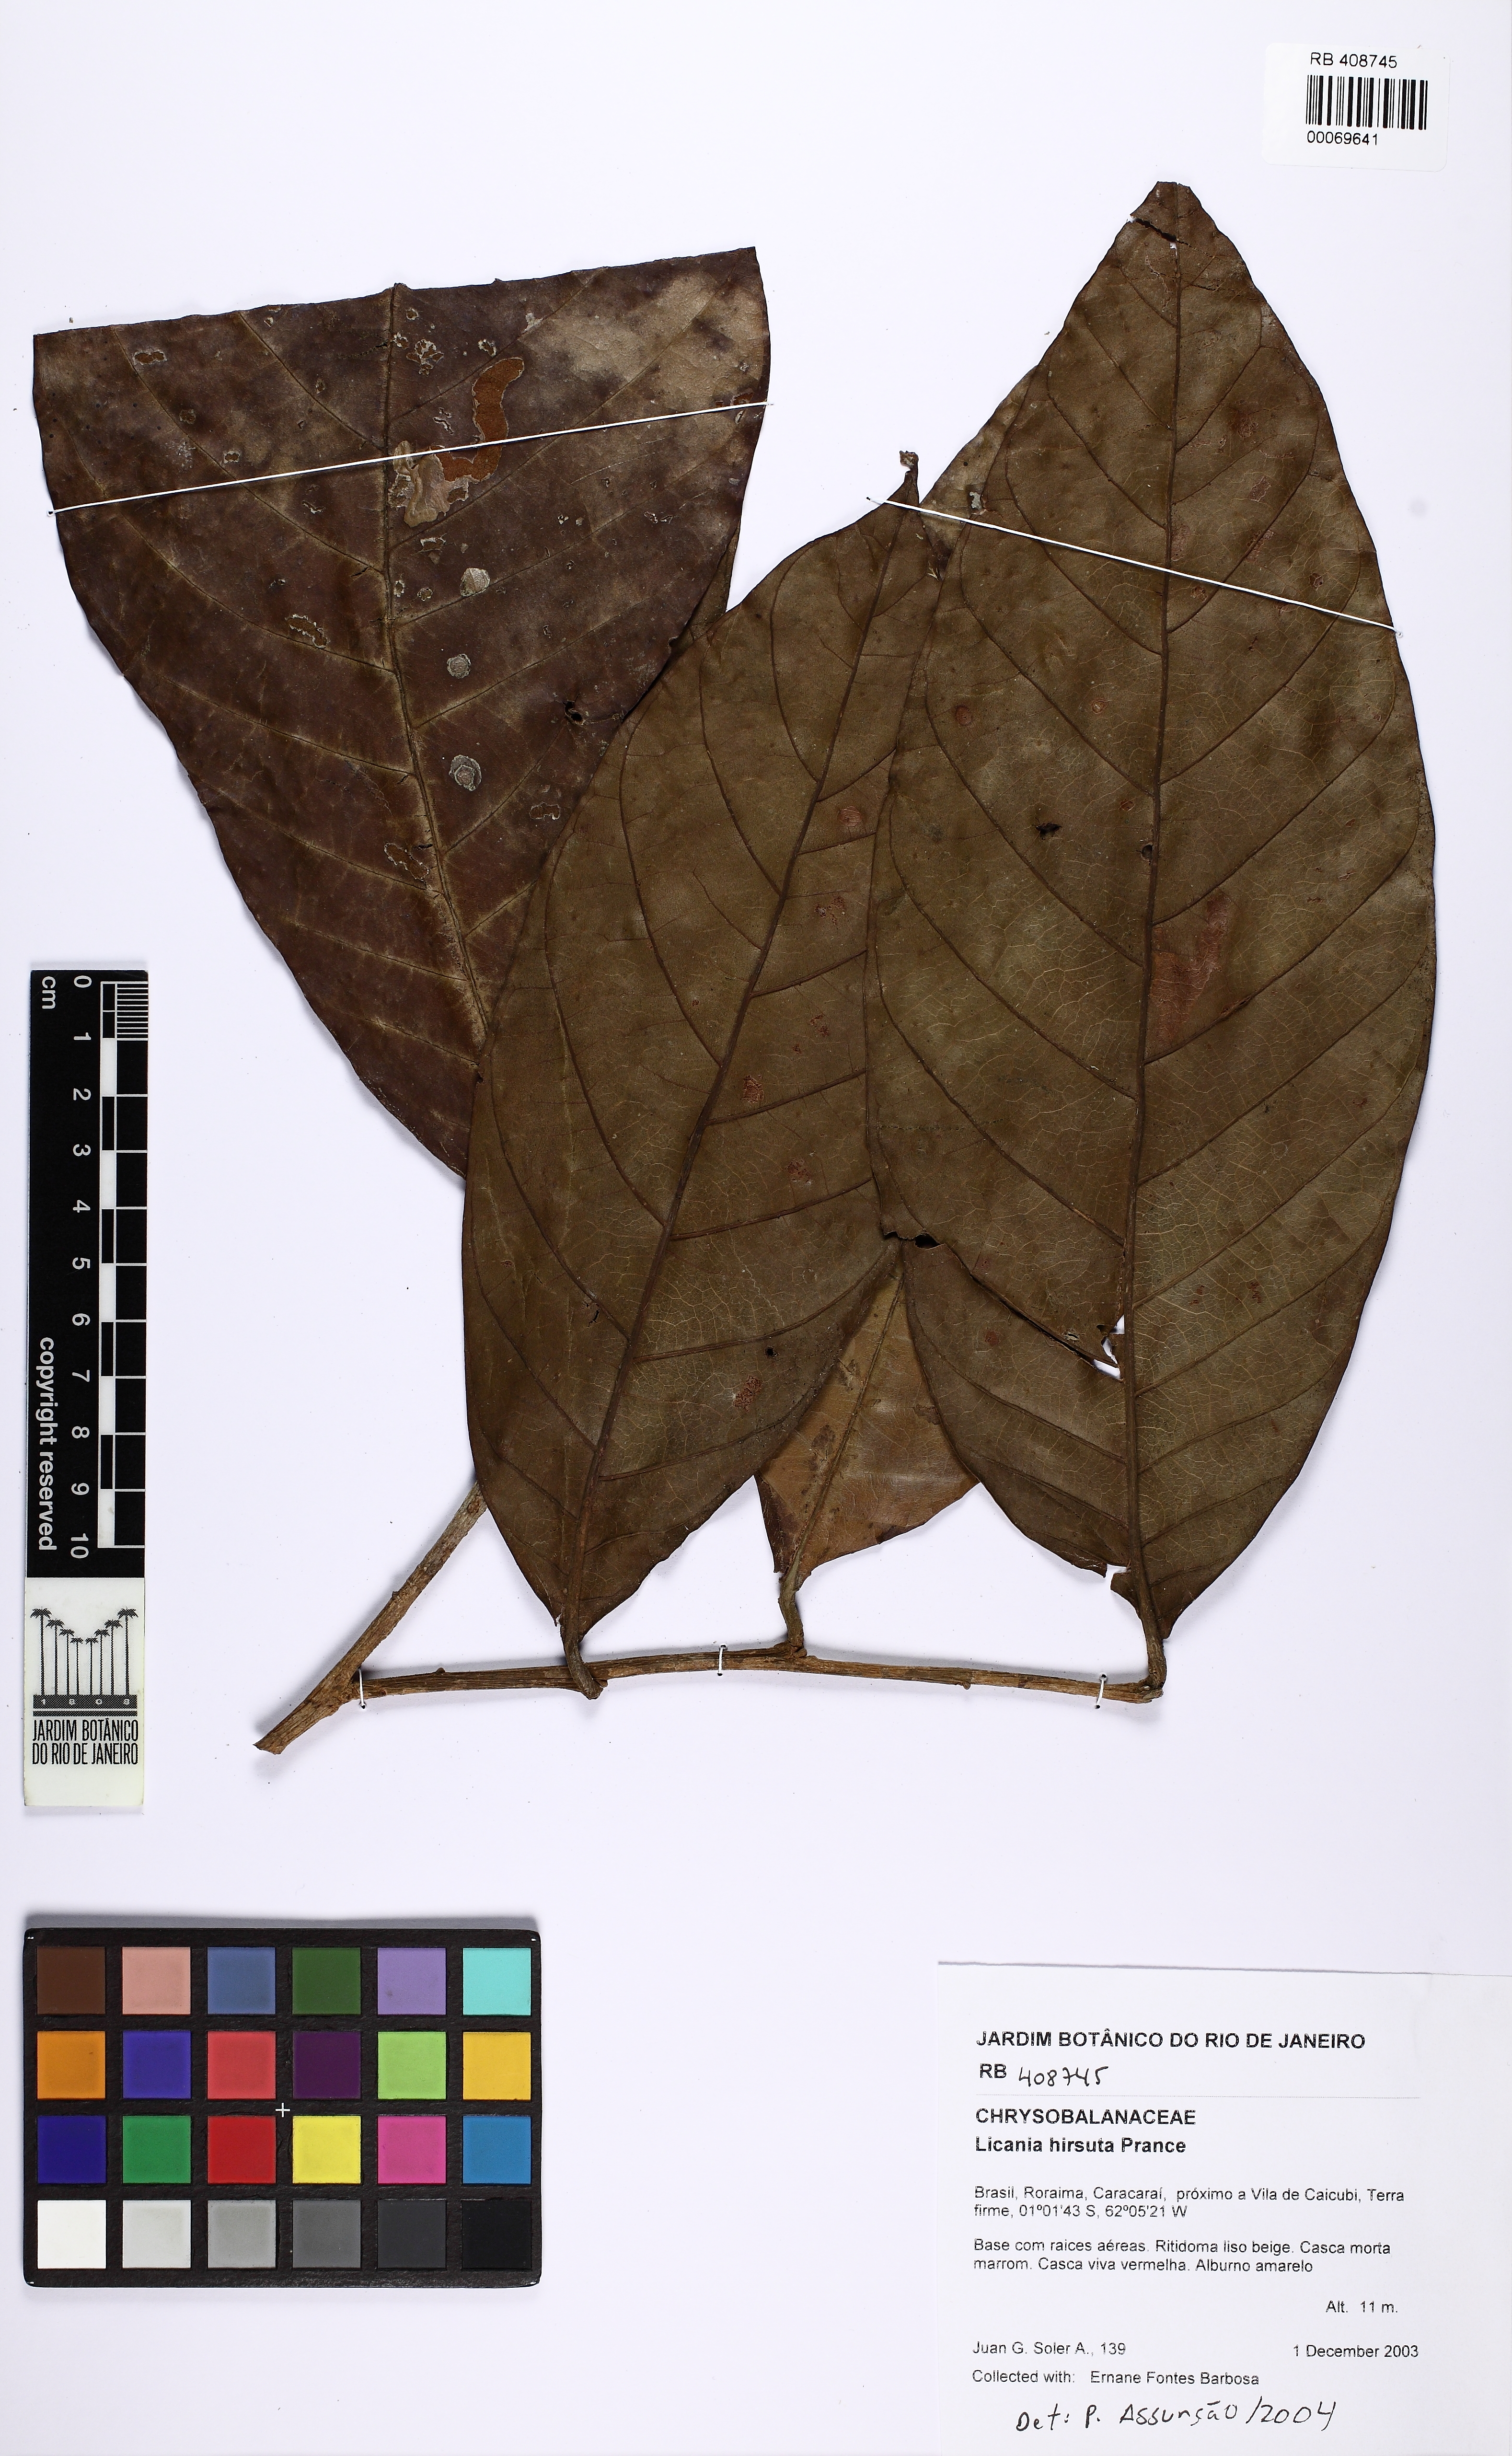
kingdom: Plantae
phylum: Tracheophyta
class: Magnoliopsida
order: Malpighiales
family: Chrysobalanaceae
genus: Hymenopus
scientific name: Hymenopus hirsutus
